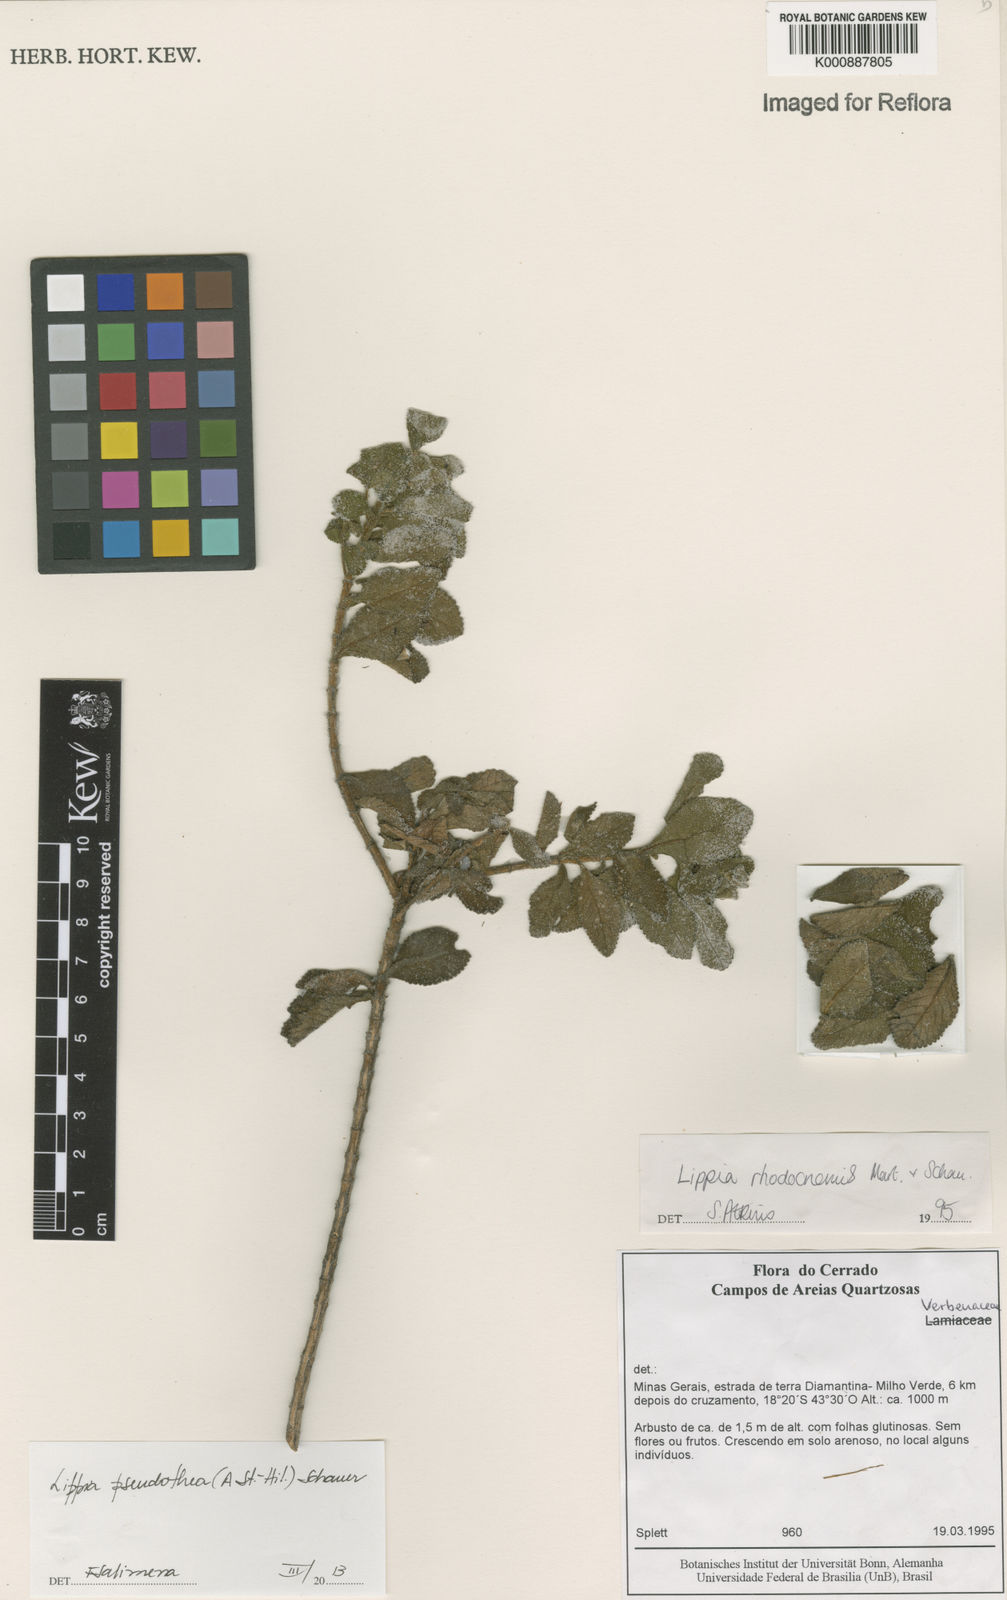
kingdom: Plantae
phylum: Tracheophyta
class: Magnoliopsida
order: Lamiales
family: Verbenaceae
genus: Lippia
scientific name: Lippia
